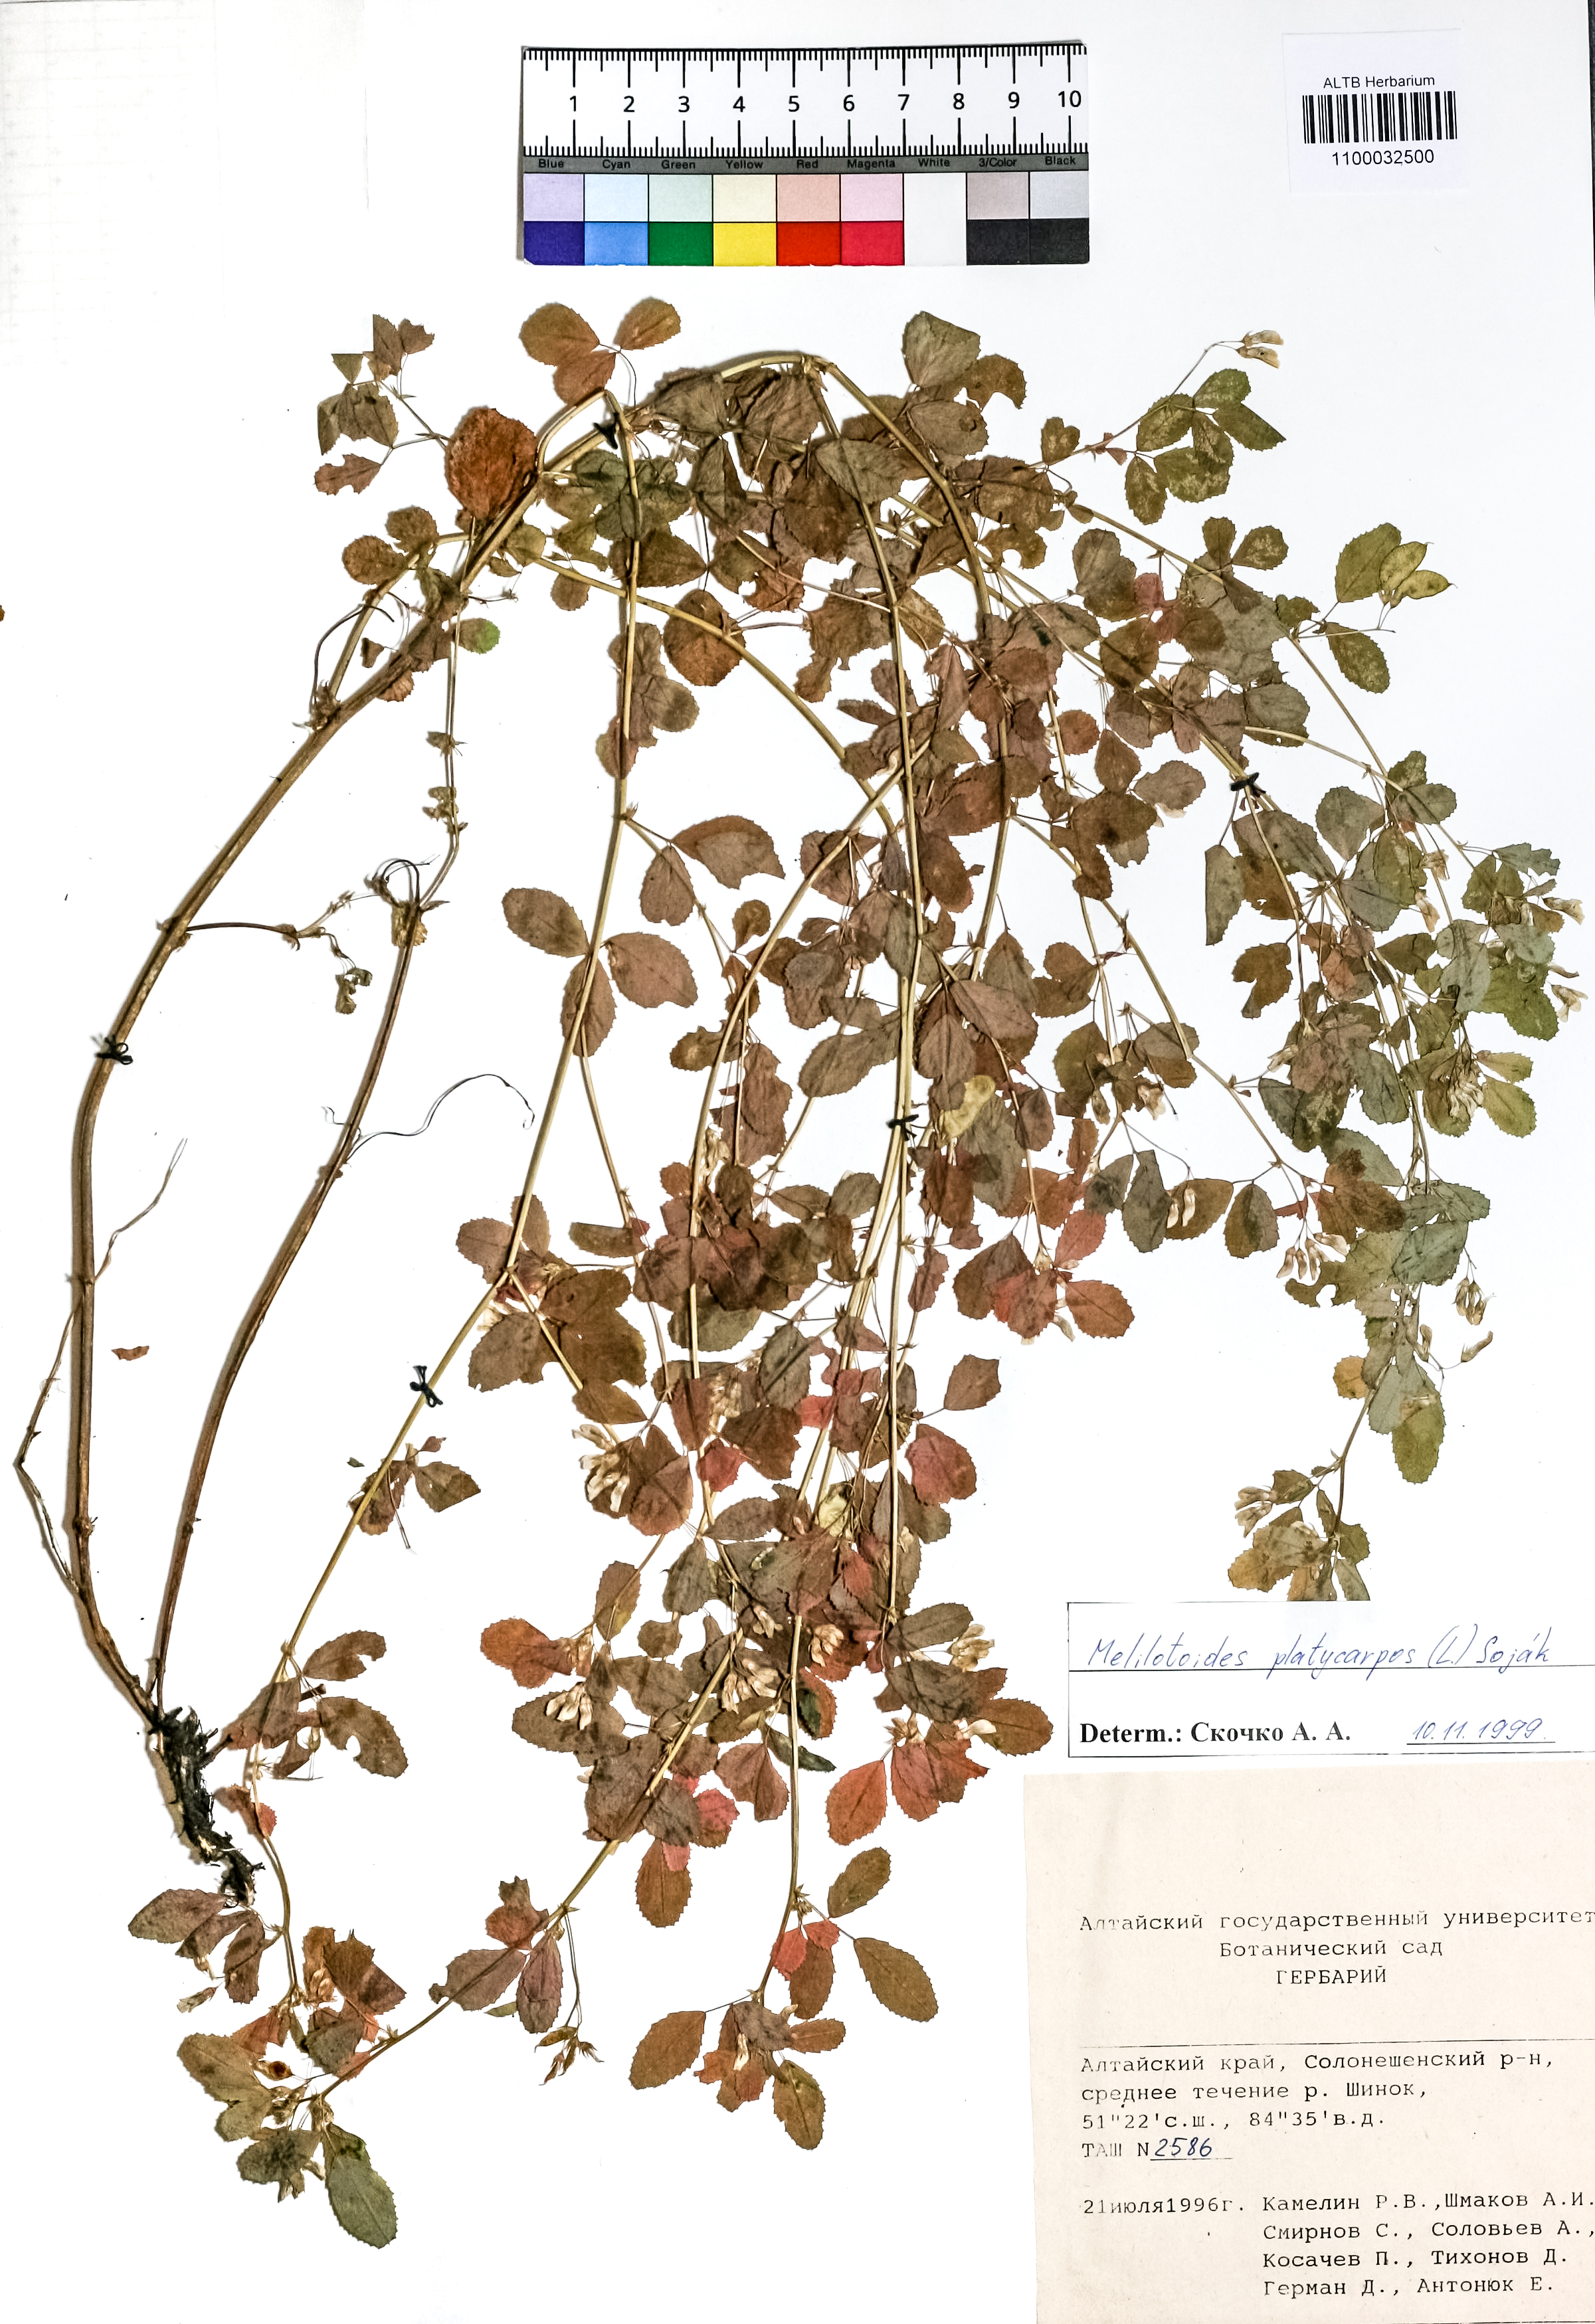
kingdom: Plantae
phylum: Tracheophyta
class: Magnoliopsida
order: Fabales
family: Fabaceae
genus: Medicago
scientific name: Medicago platycarpos
